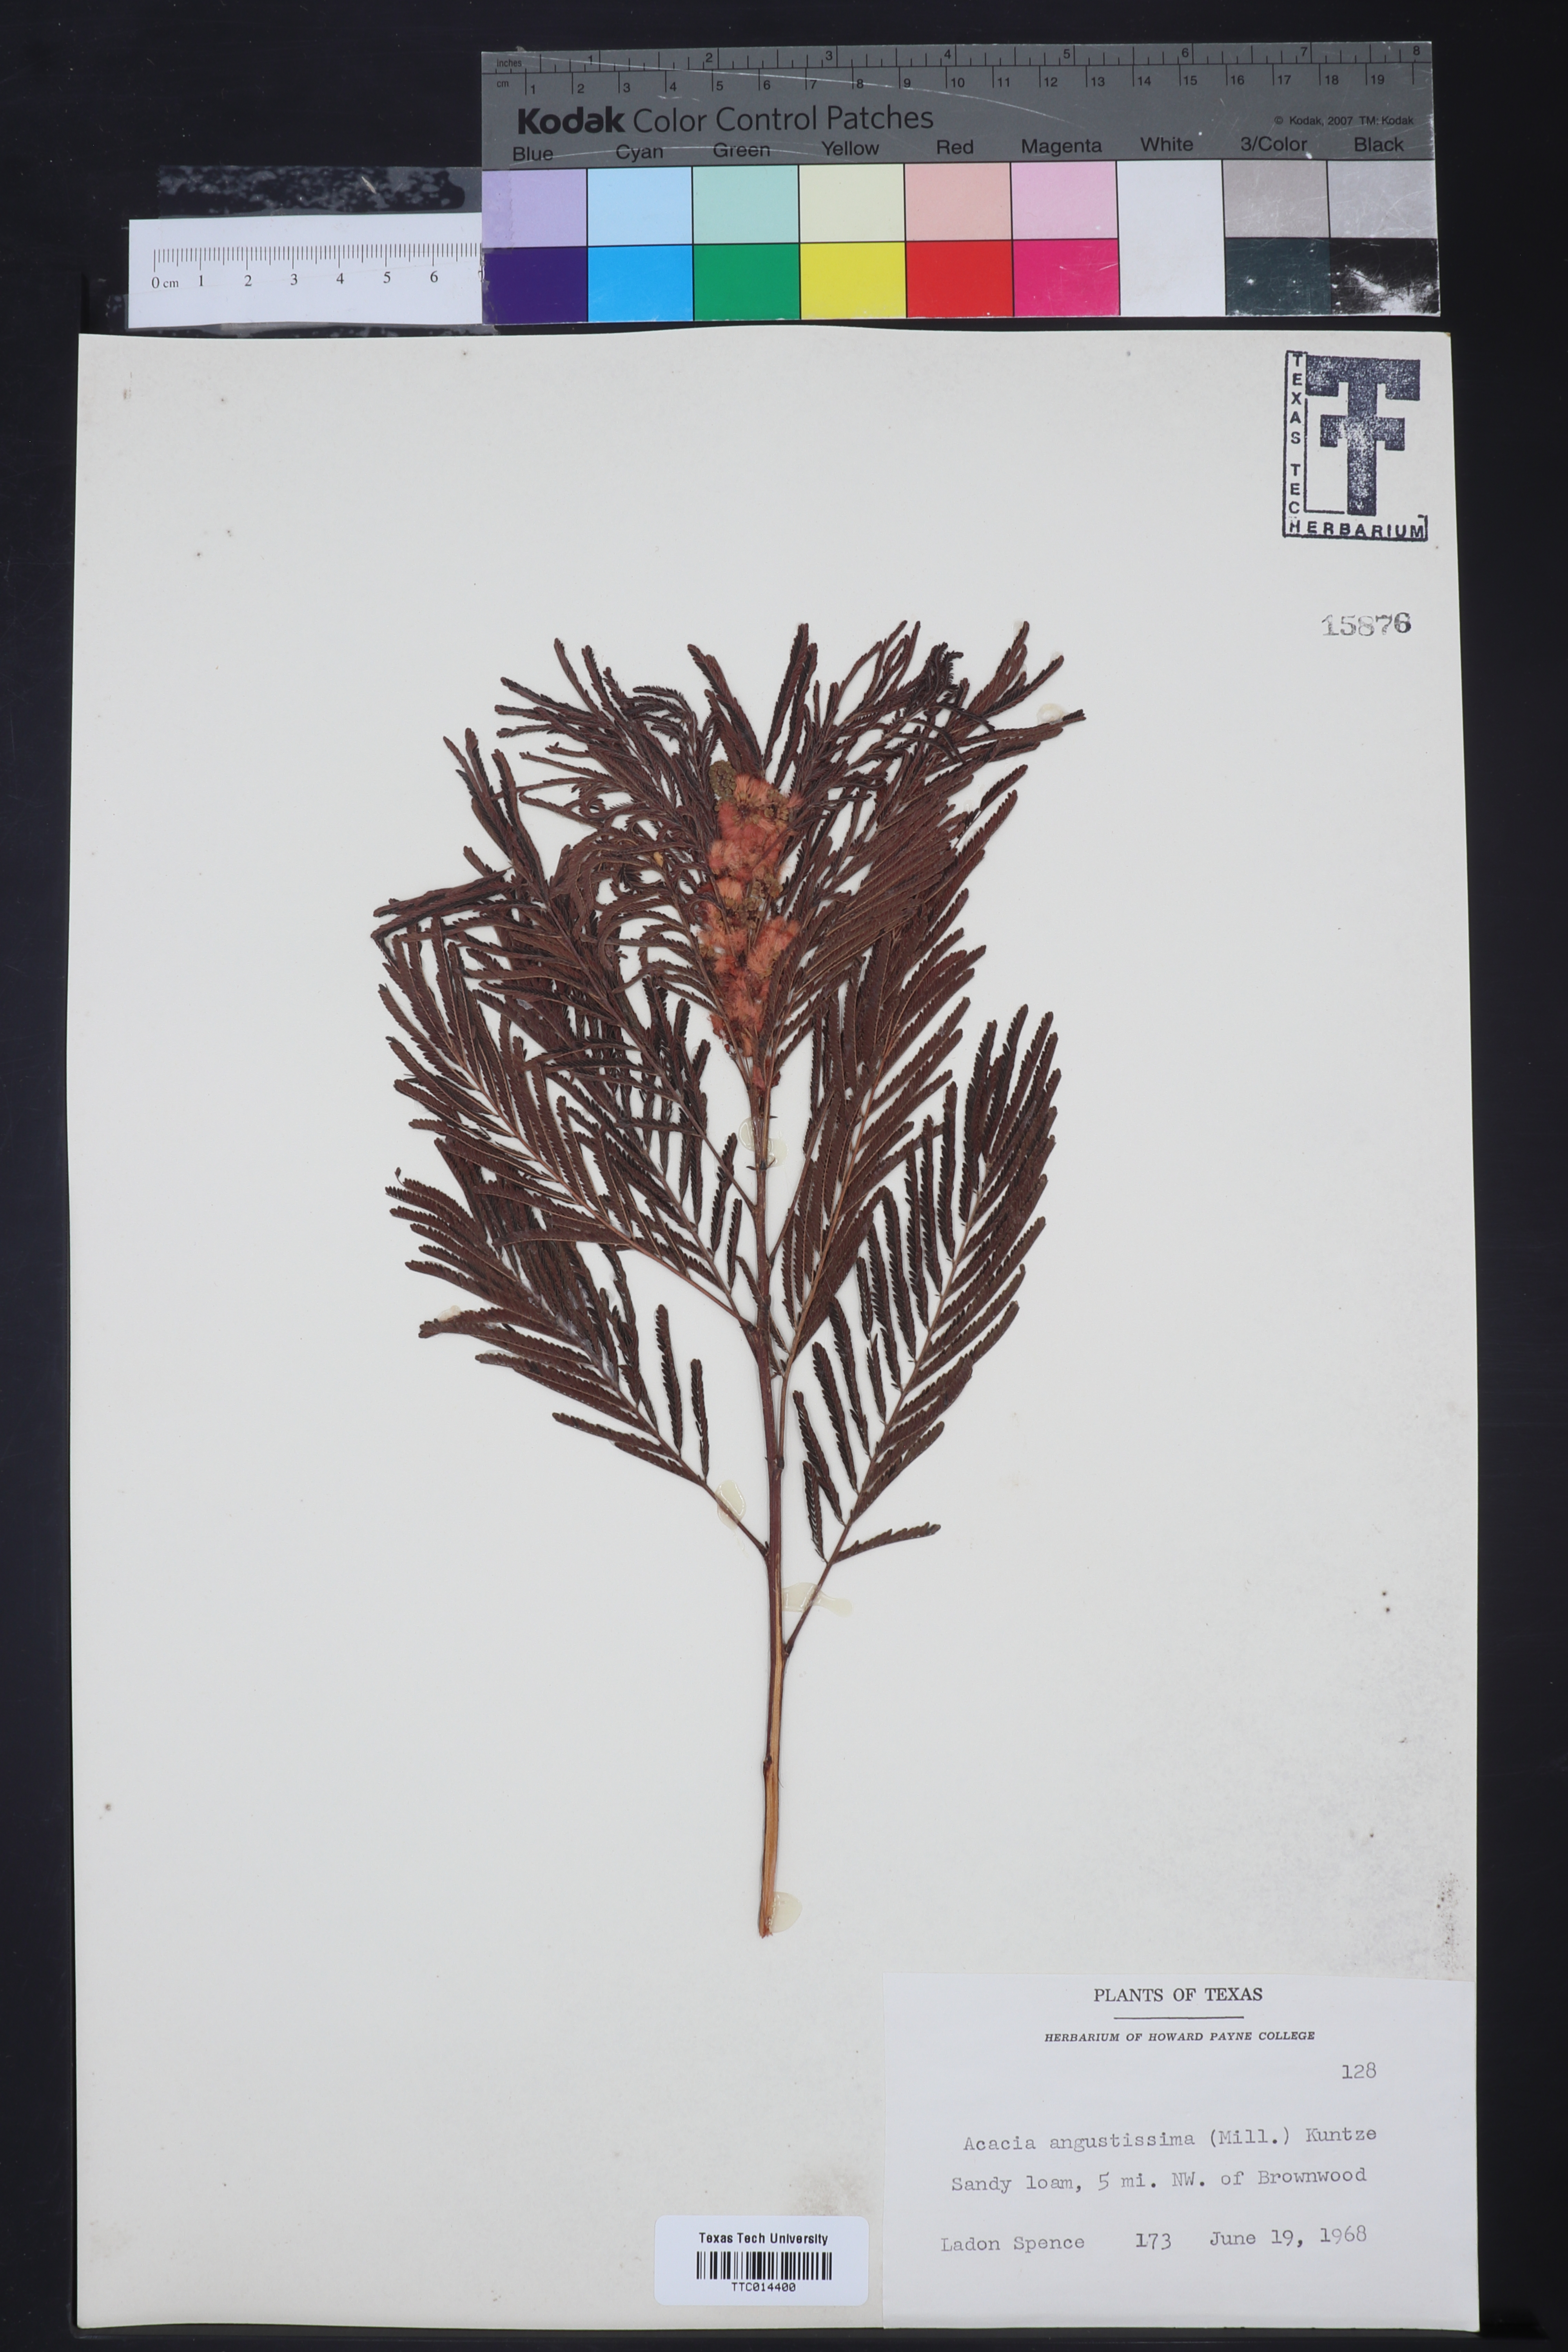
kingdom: Plantae
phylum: Tracheophyta
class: Magnoliopsida
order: Fabales
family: Fabaceae
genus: Acaciella
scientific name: Acaciella angustissima
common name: Prairie acacia
